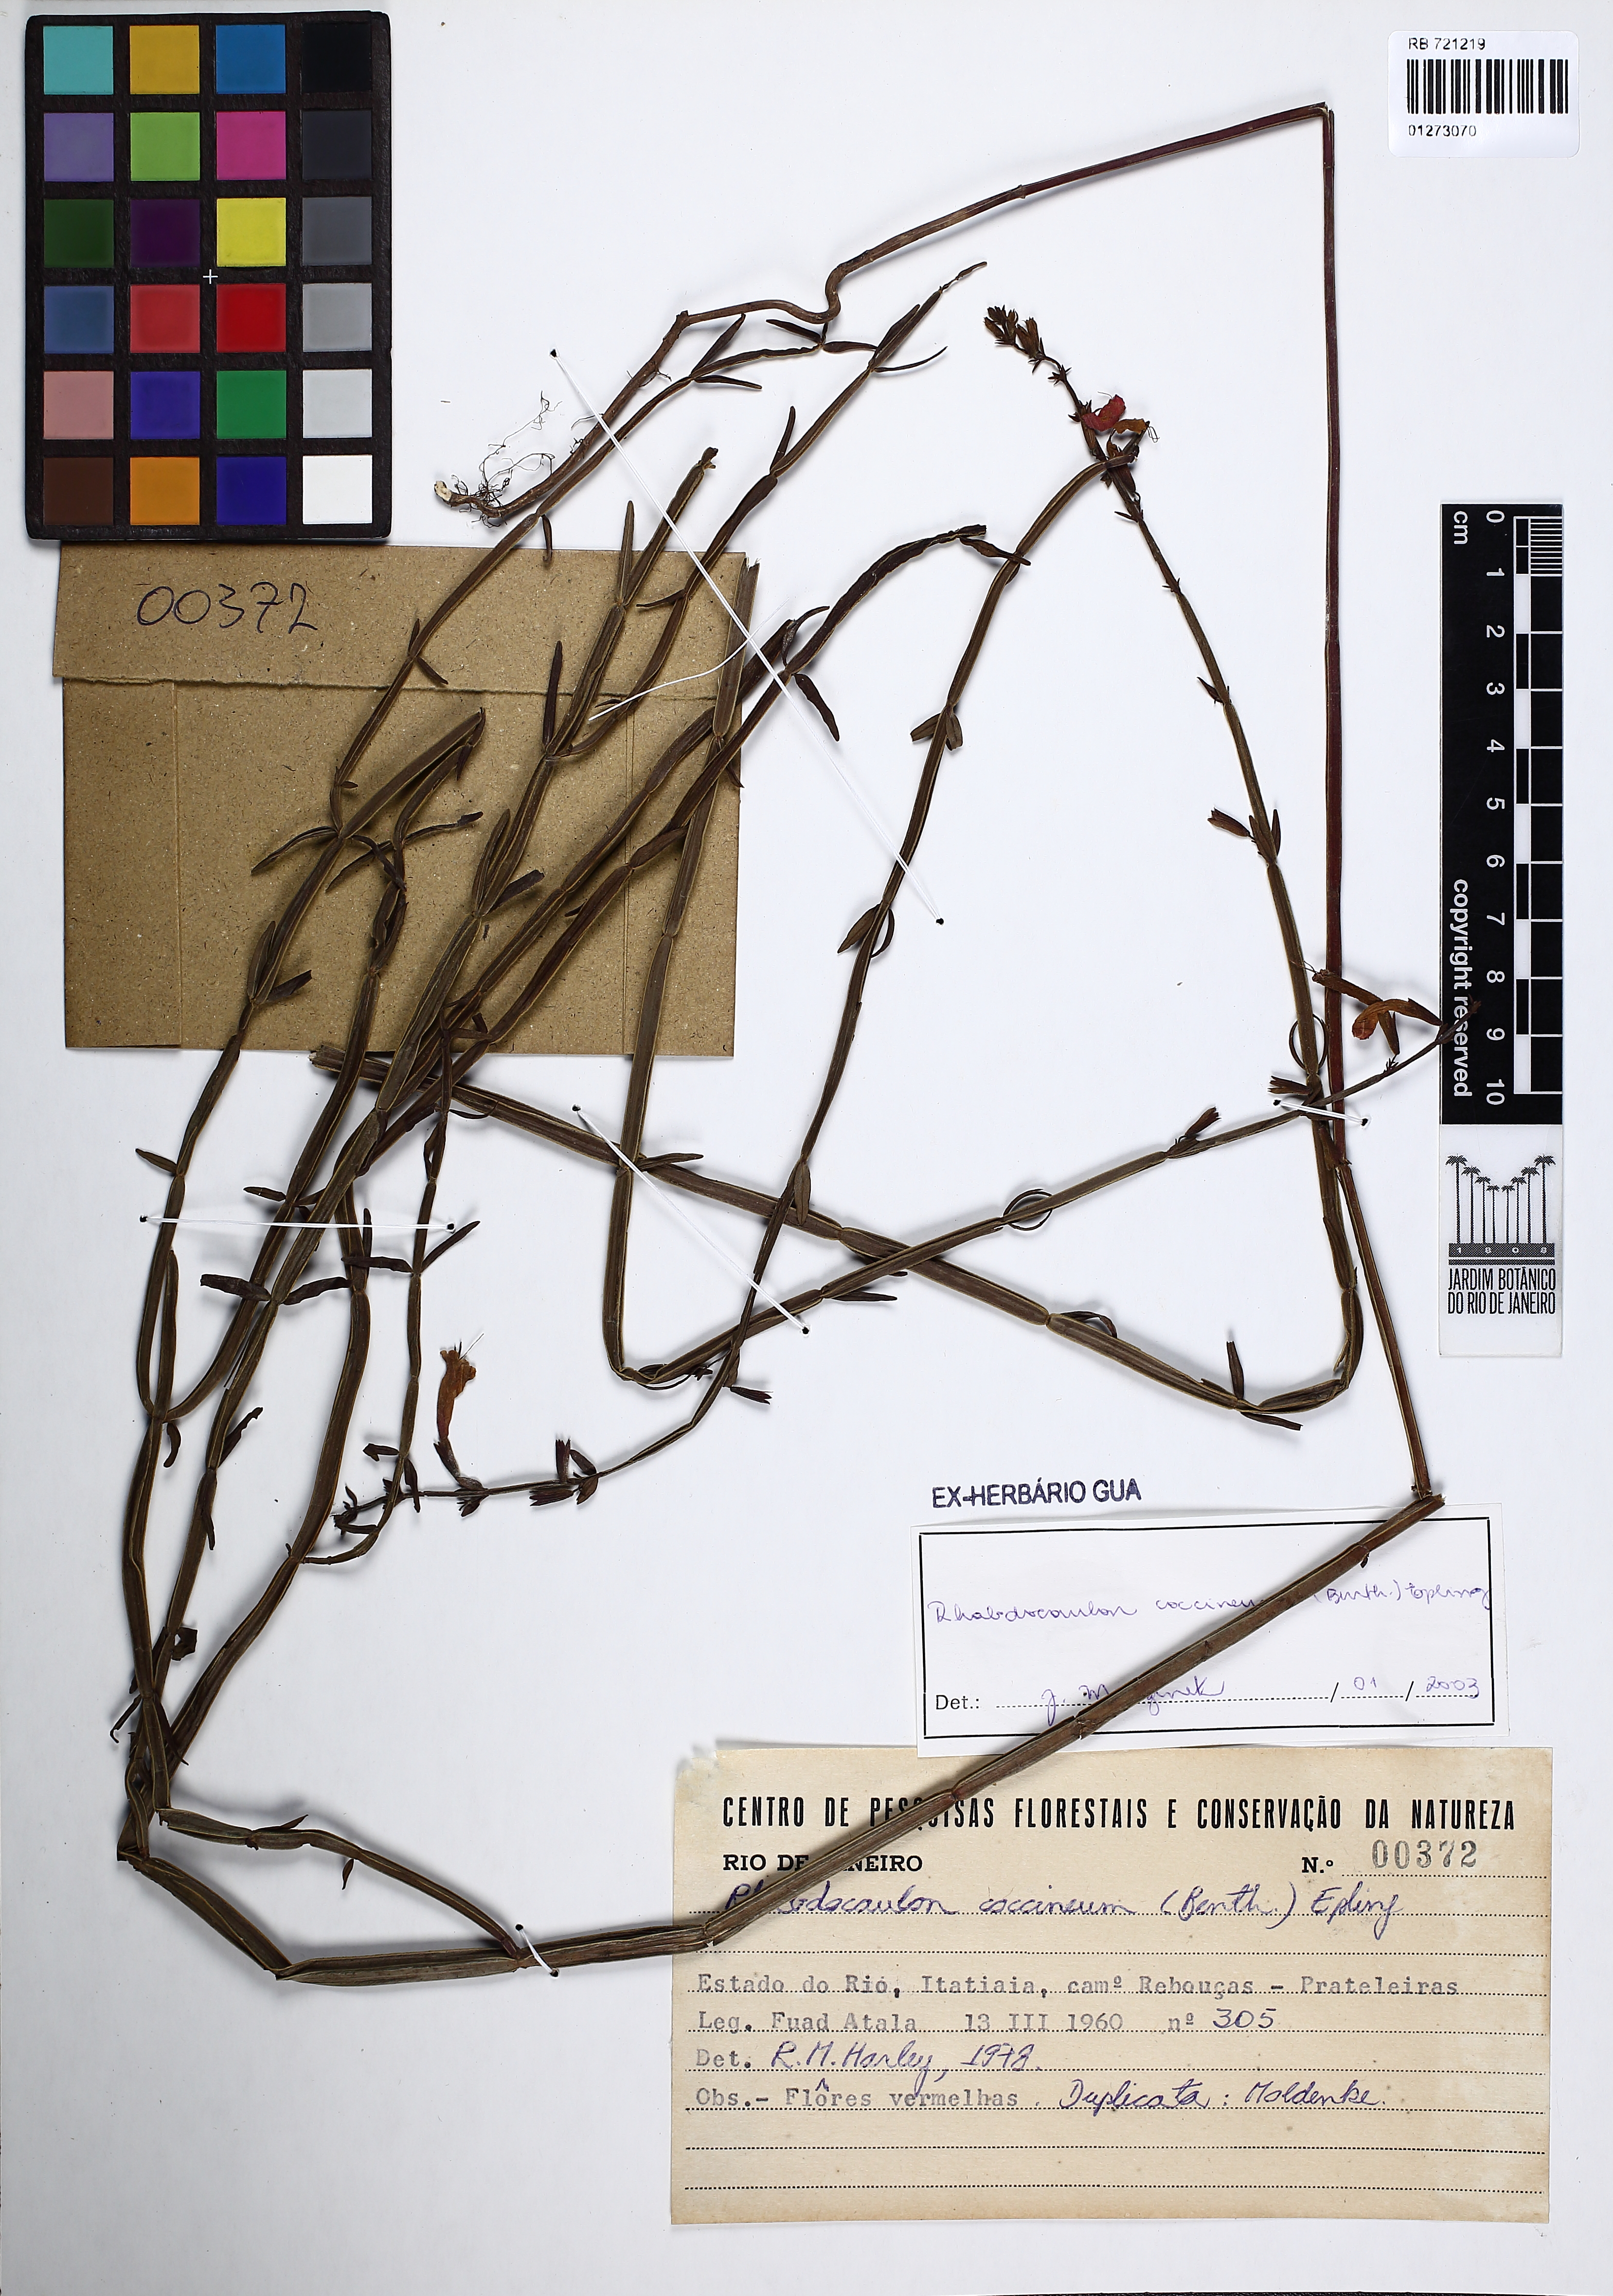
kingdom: Plantae
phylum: Tracheophyta
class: Magnoliopsida
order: Lamiales
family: Lamiaceae
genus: Rhabdocaulon
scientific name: Rhabdocaulon coccineum
